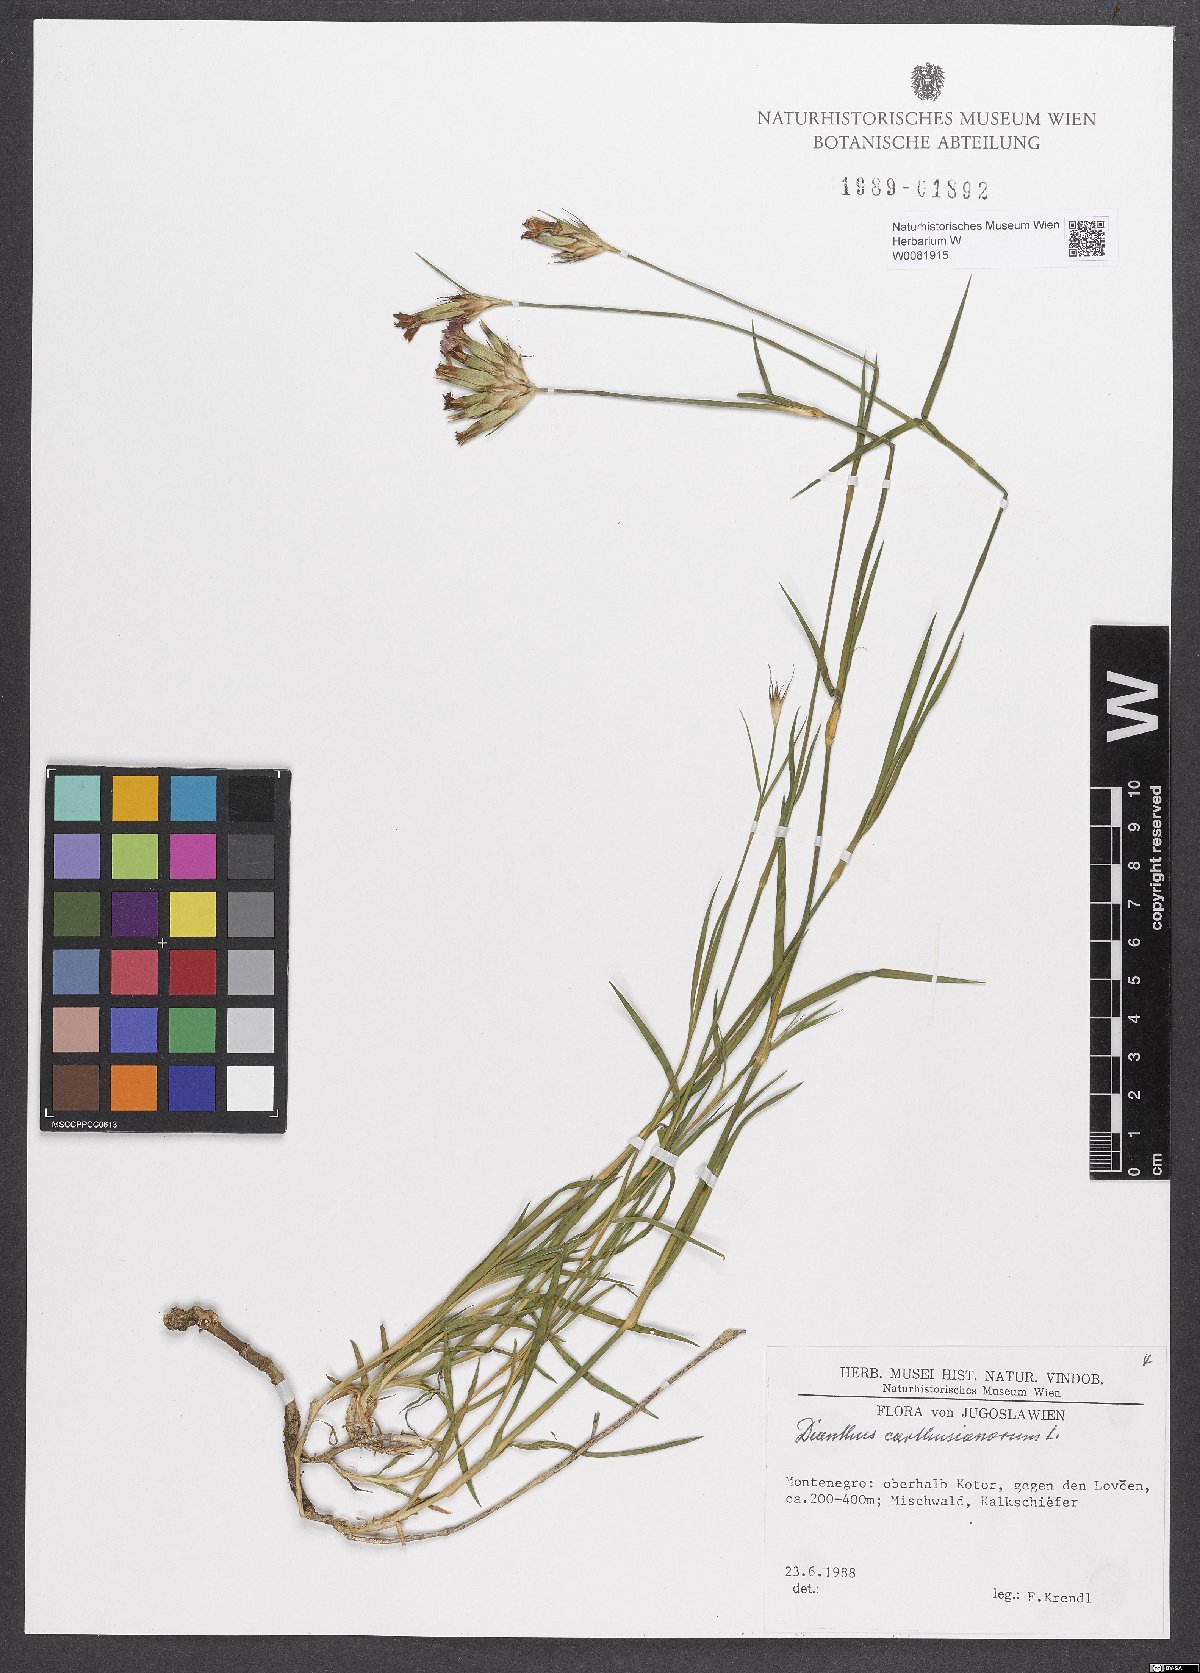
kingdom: Plantae
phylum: Tracheophyta
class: Magnoliopsida
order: Caryophyllales
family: Caryophyllaceae
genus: Dianthus
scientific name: Dianthus carthusianorum
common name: Carthusian pink
